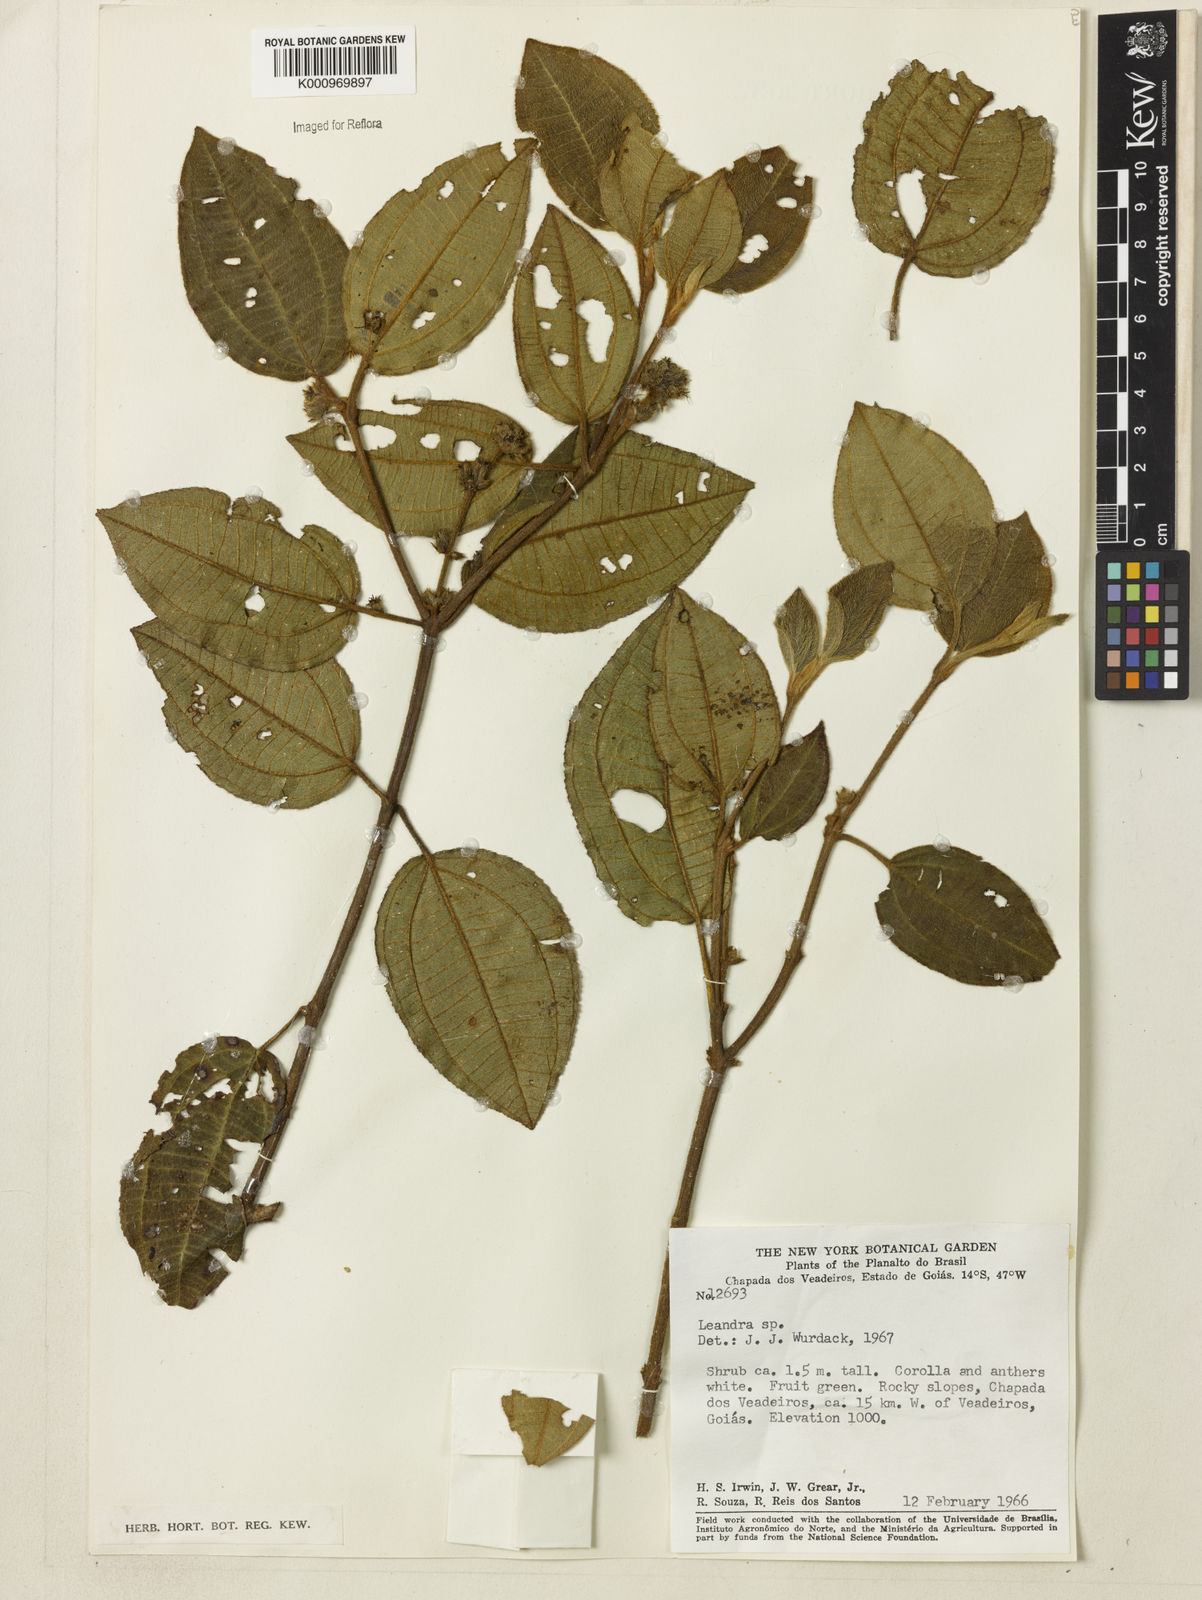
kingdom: Plantae
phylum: Tracheophyta
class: Magnoliopsida
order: Myrtales
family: Melastomataceae
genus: Miconia
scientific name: Miconia
